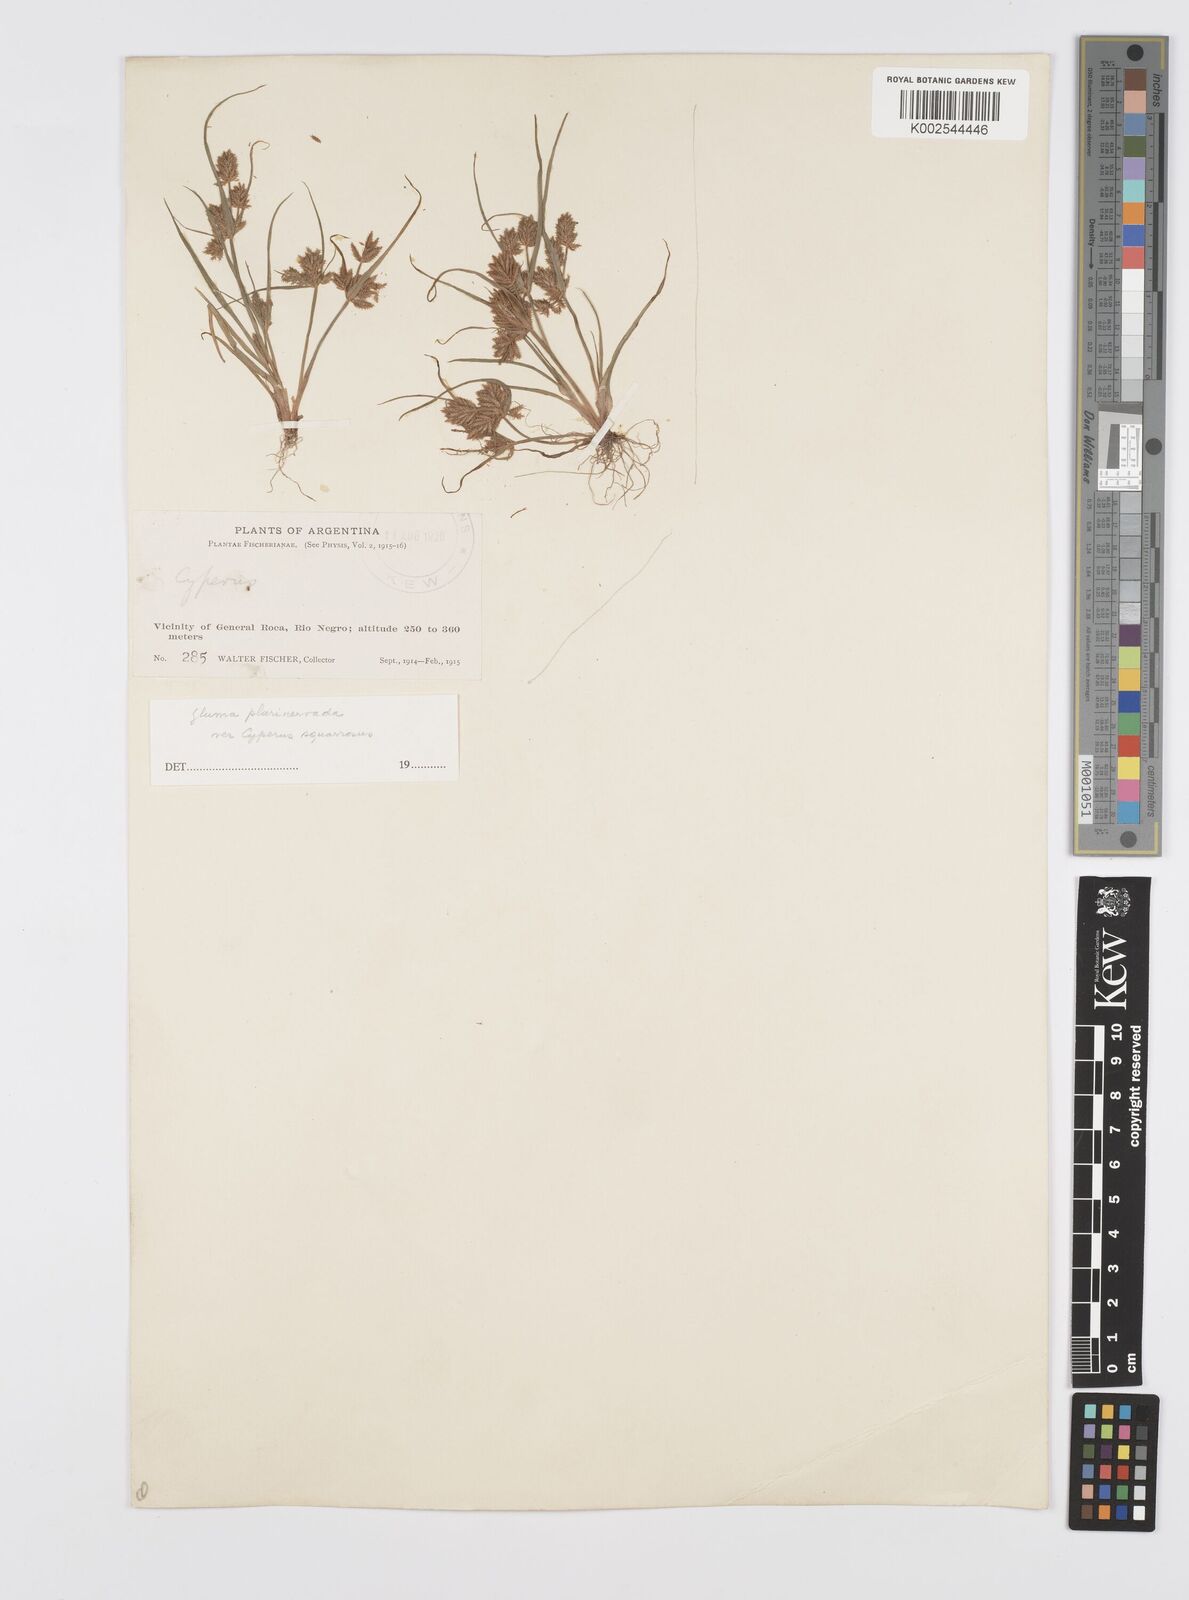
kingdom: Plantae
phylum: Tracheophyta
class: Liliopsida
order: Poales
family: Cyperaceae
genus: Cyperus
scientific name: Cyperus
